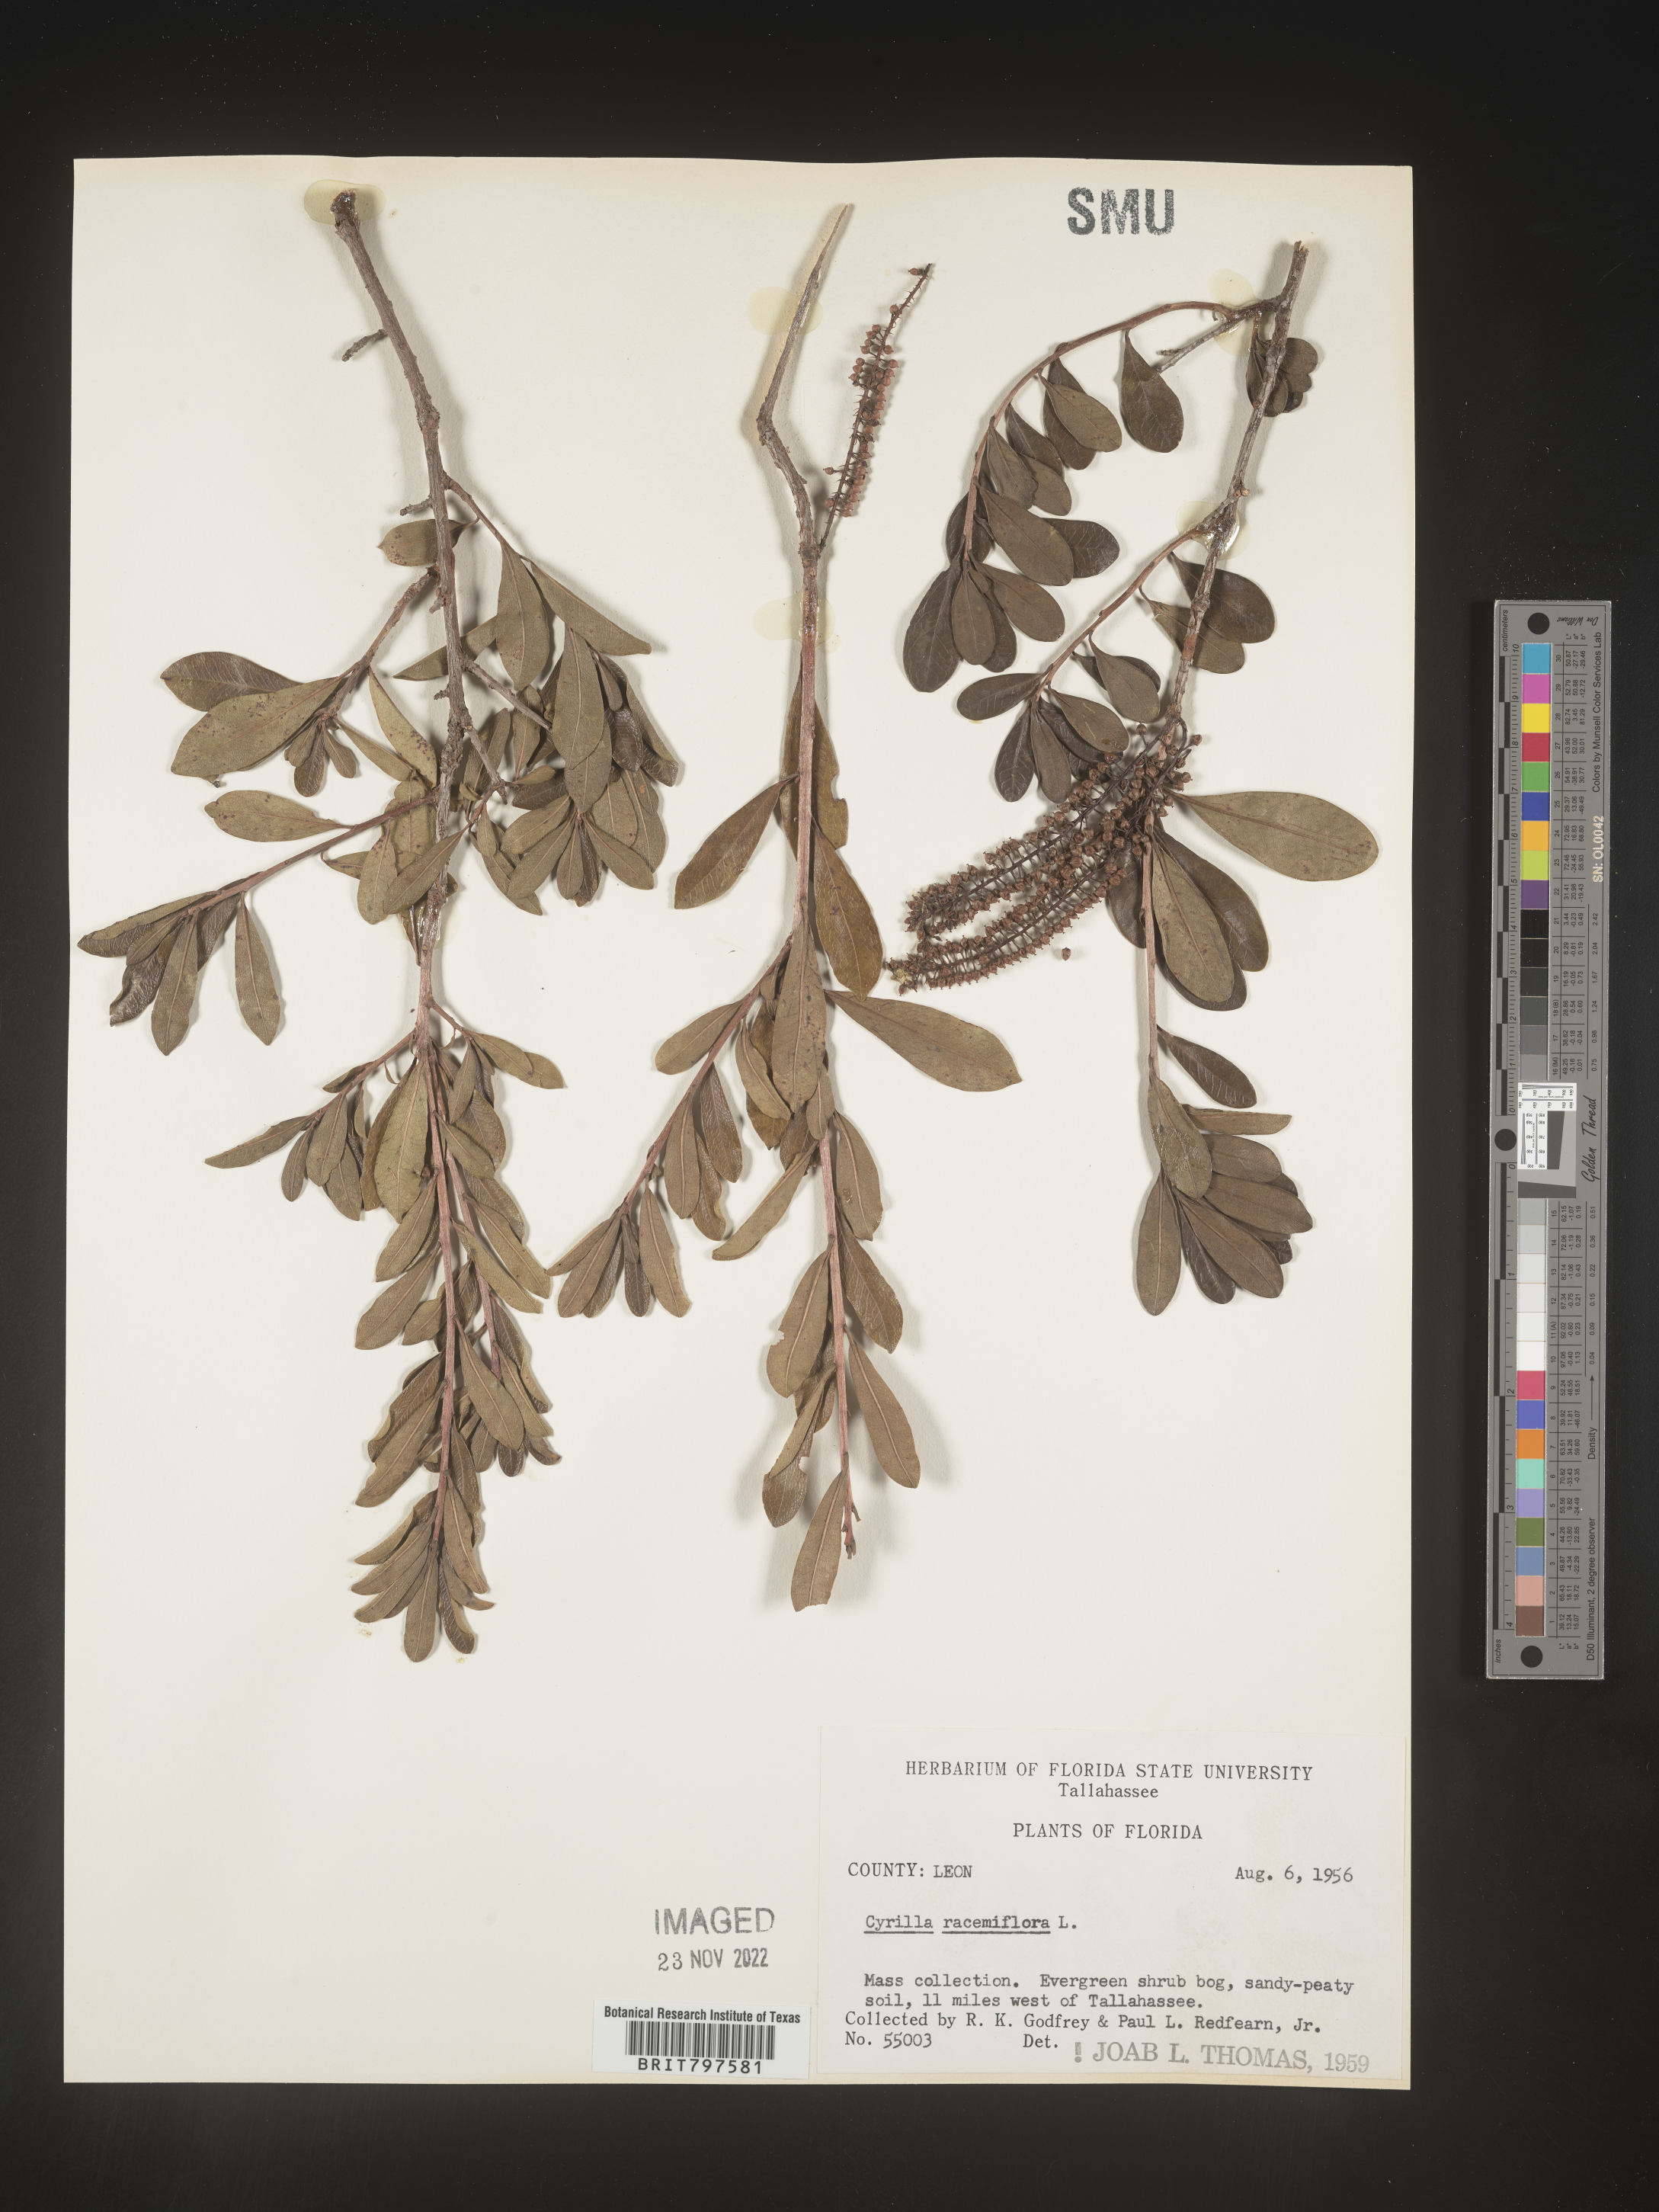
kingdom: Plantae
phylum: Tracheophyta
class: Magnoliopsida
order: Ericales
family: Cyrillaceae
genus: Cyrilla
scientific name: Cyrilla racemiflora
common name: Black titi
